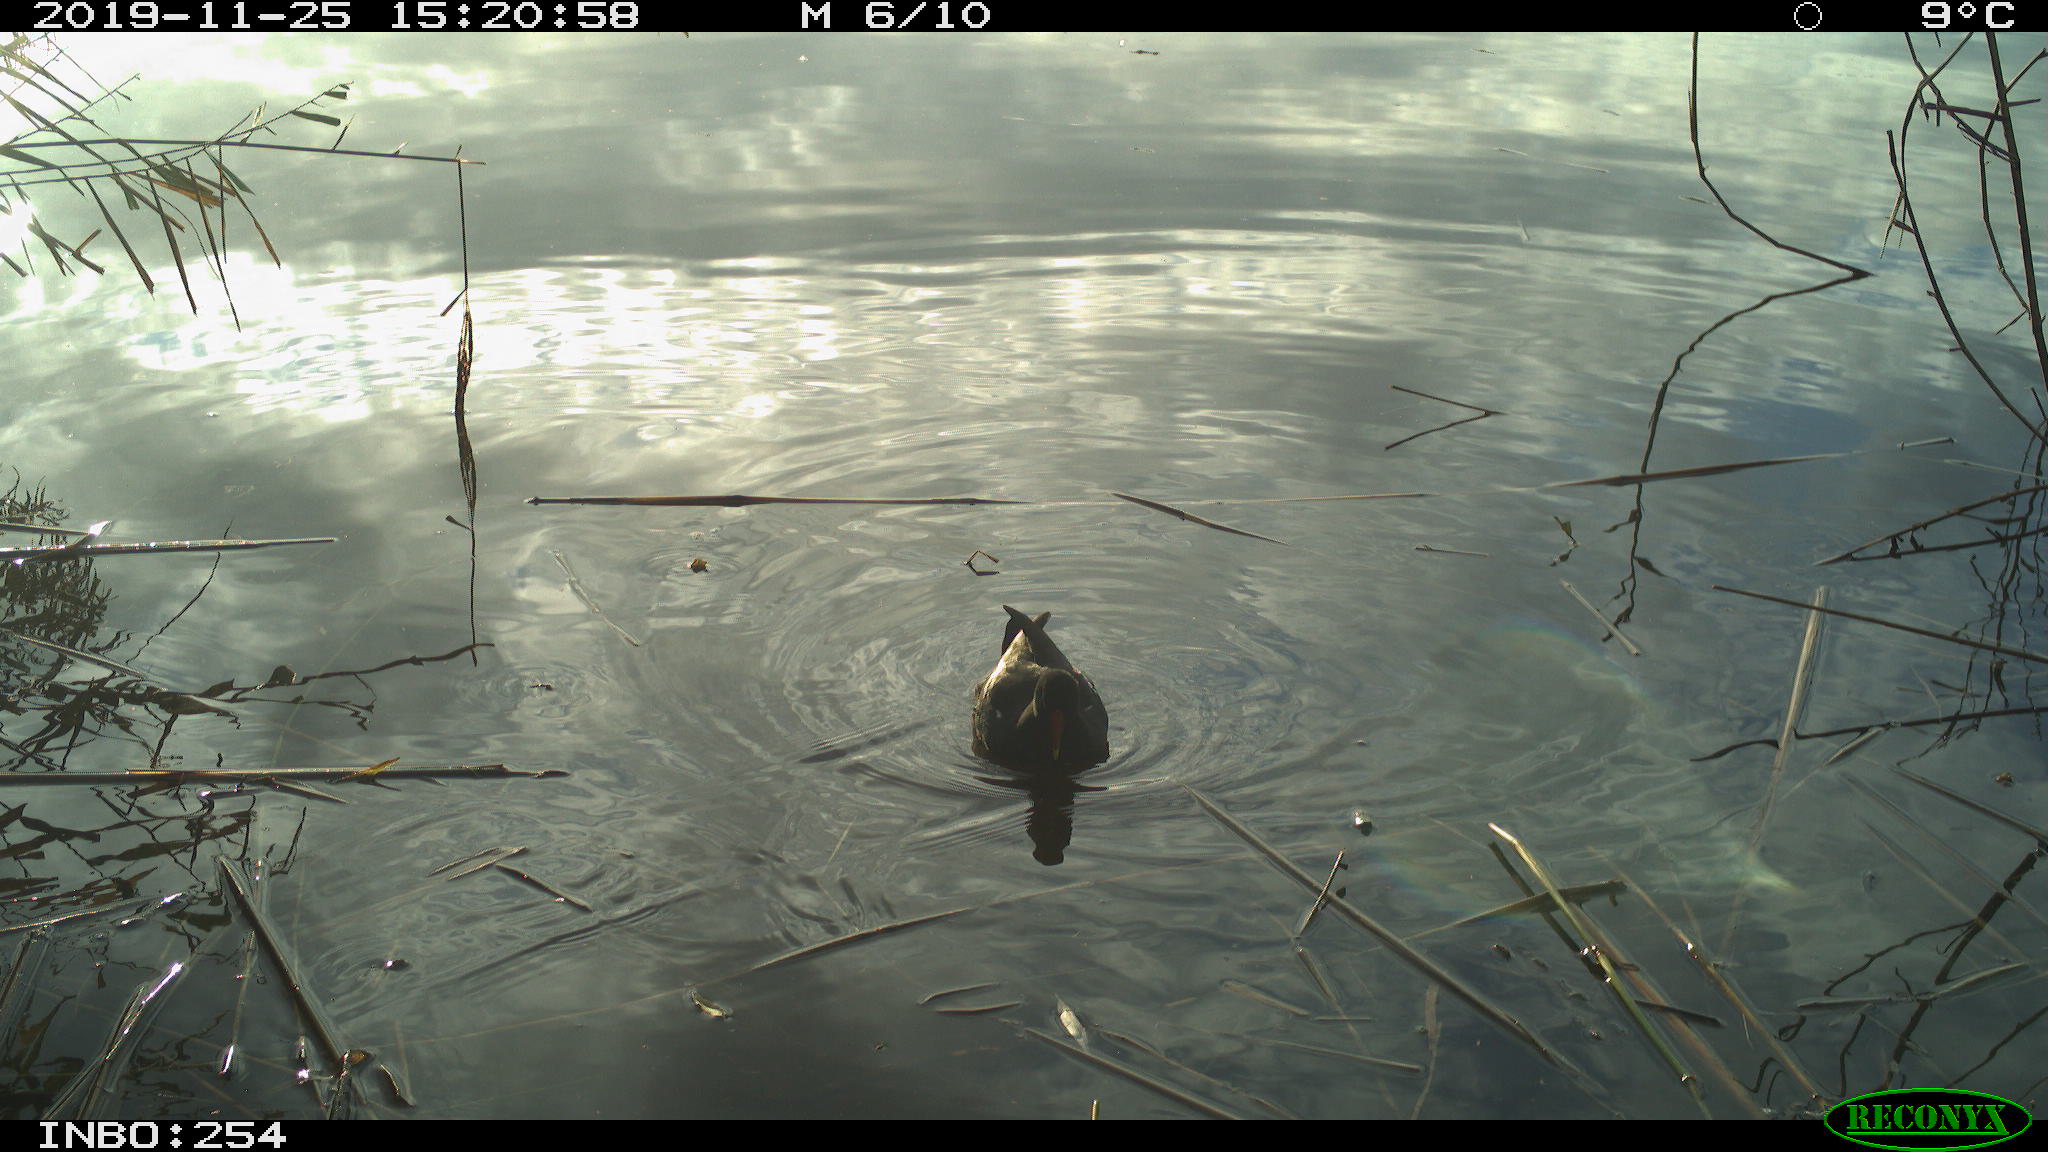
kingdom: Animalia
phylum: Chordata
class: Aves
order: Gruiformes
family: Rallidae
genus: Gallinula
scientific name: Gallinula chloropus
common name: Common moorhen
